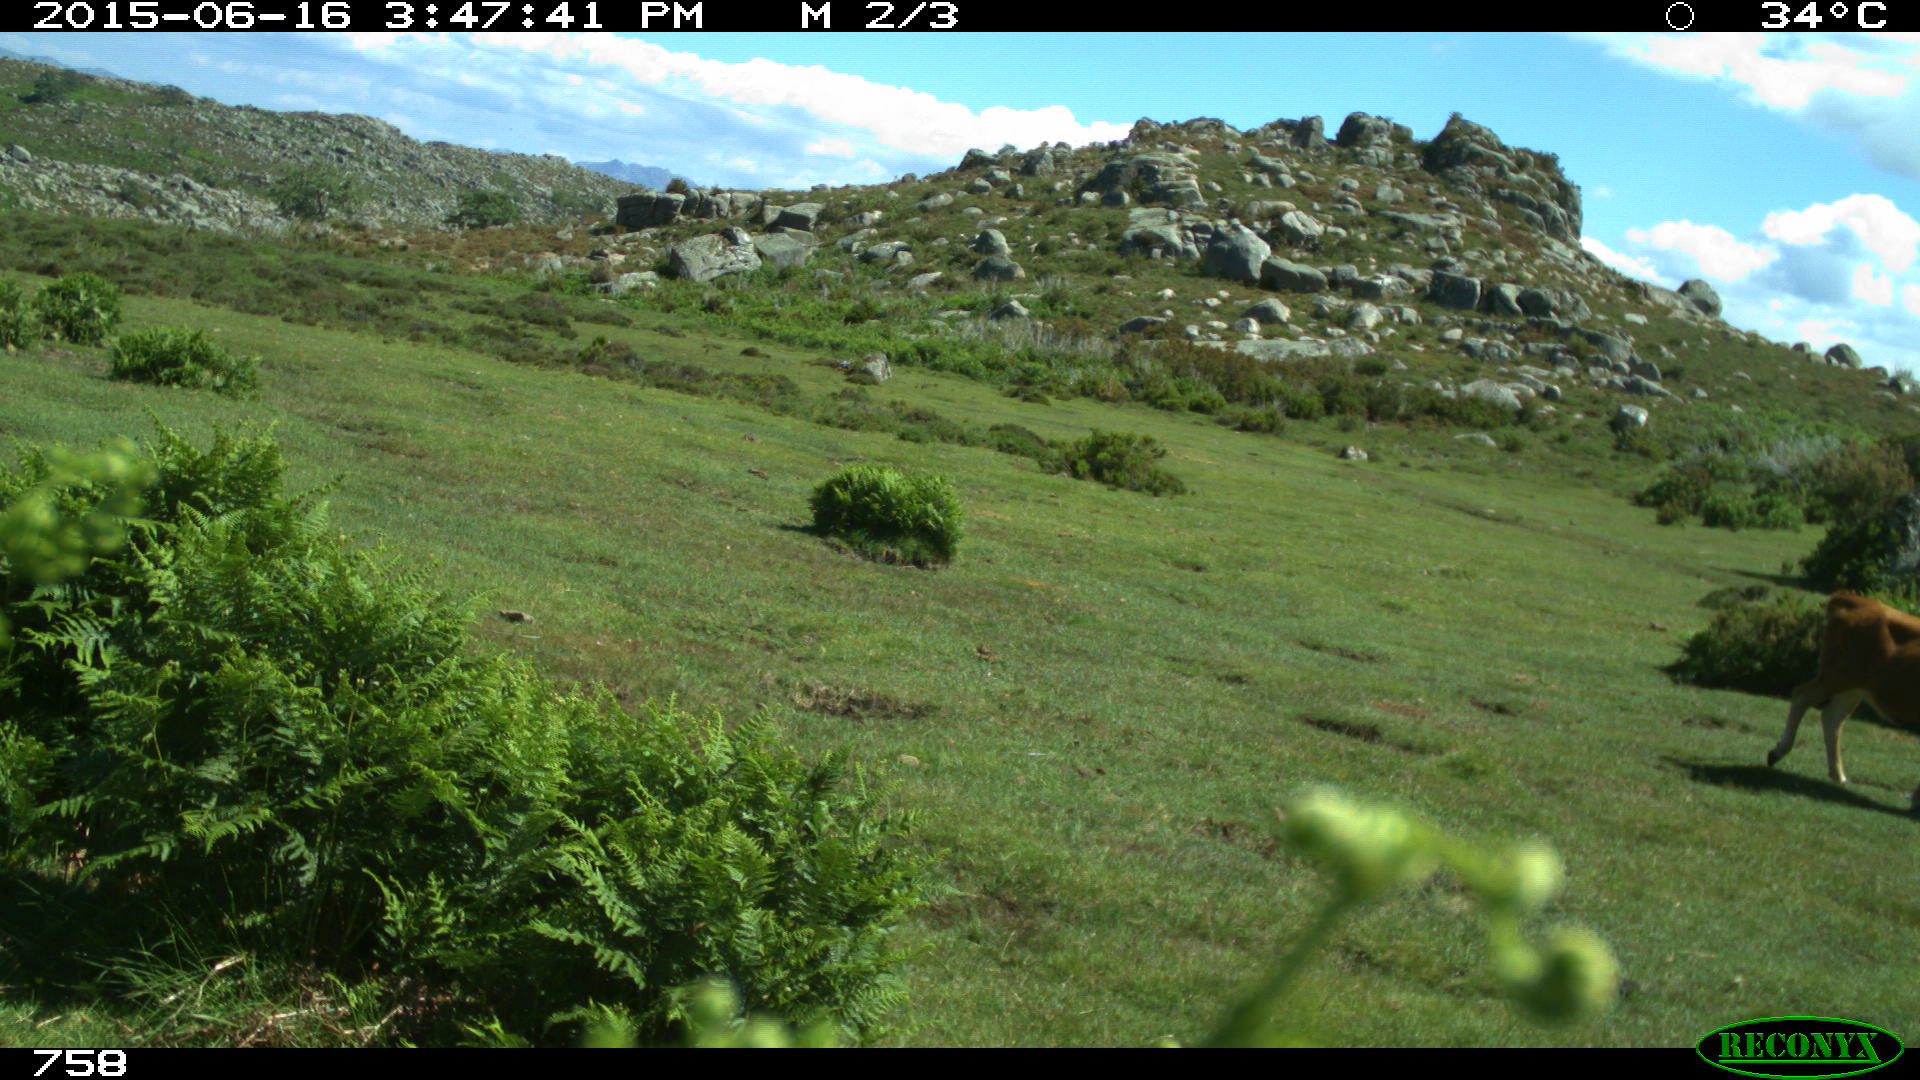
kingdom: Animalia
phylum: Chordata
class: Mammalia
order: Artiodactyla
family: Bovidae
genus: Bos
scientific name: Bos taurus
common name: Domesticated cattle
